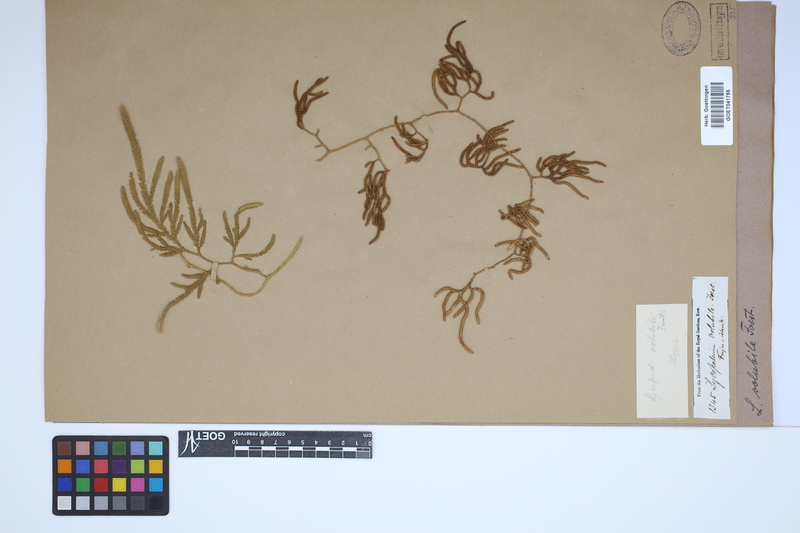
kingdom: Plantae
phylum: Tracheophyta
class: Lycopodiopsida
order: Lycopodiales
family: Lycopodiaceae
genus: Pseudodiphasium
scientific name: Pseudodiphasium volubile
